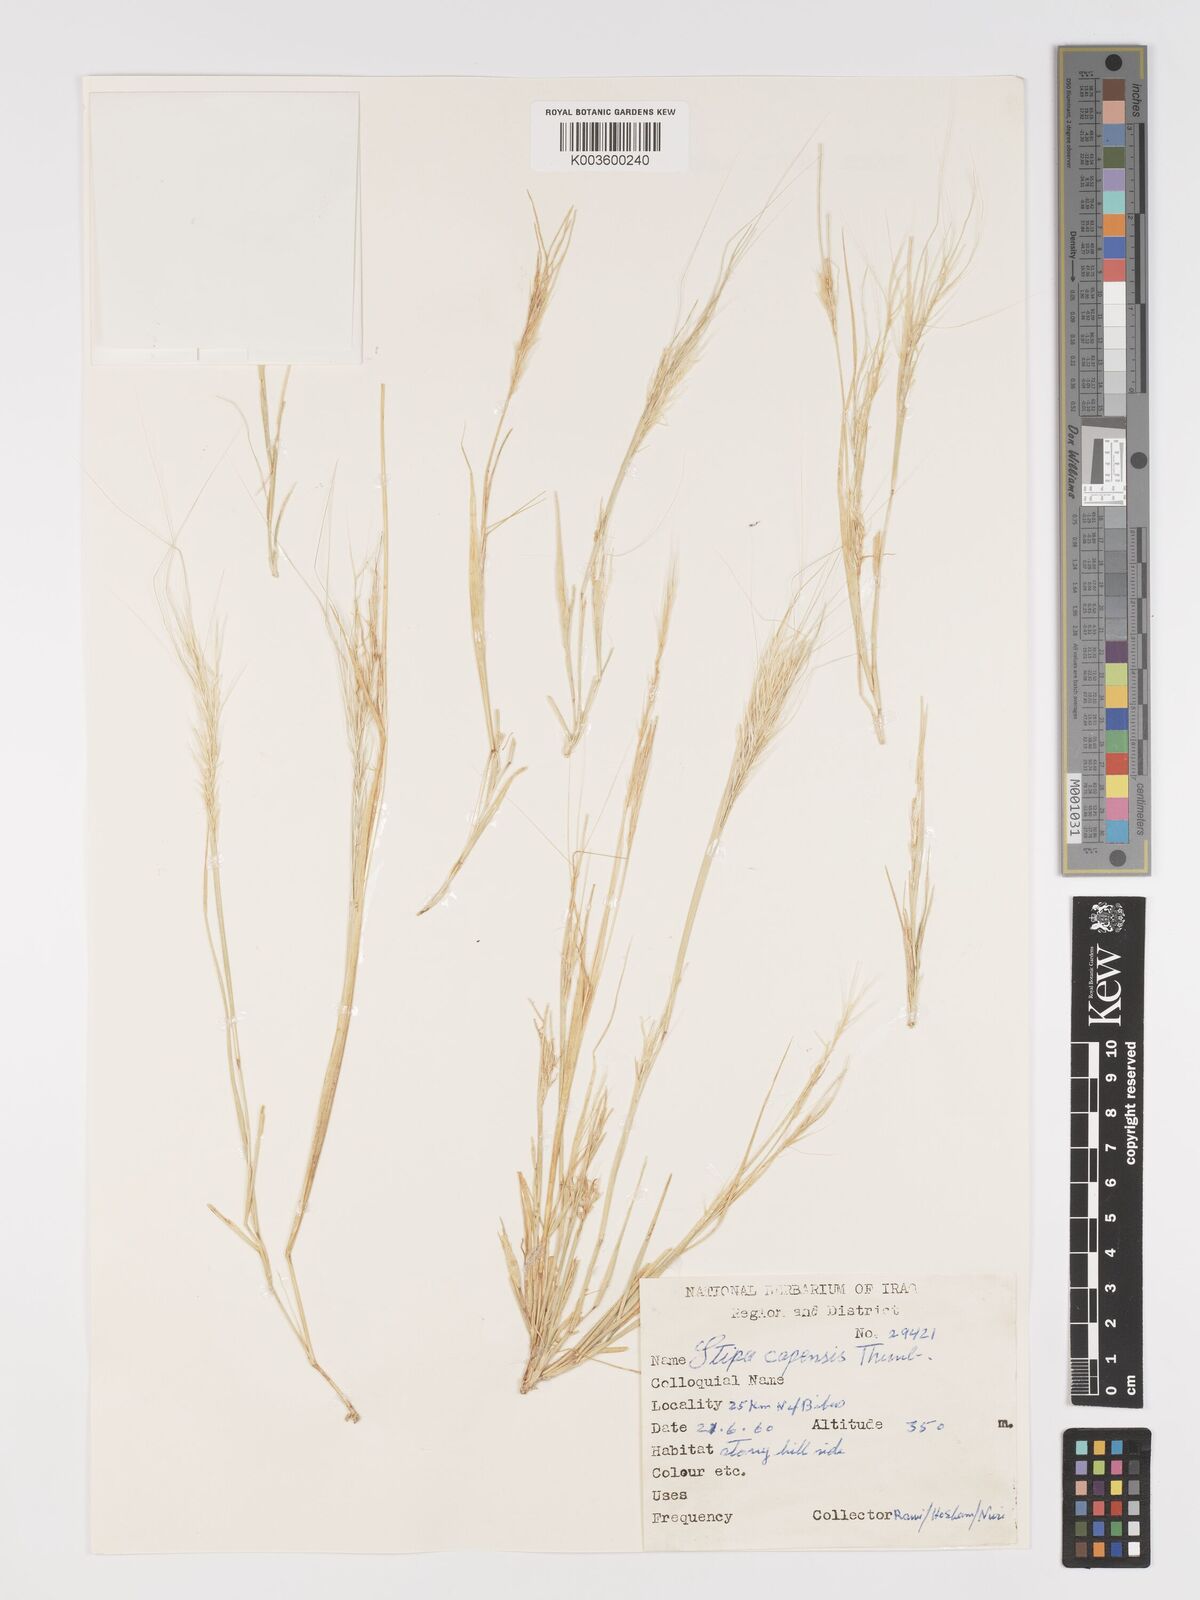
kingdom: Plantae
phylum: Tracheophyta
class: Liliopsida
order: Poales
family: Poaceae
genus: Stipellula
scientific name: Stipellula capensis
